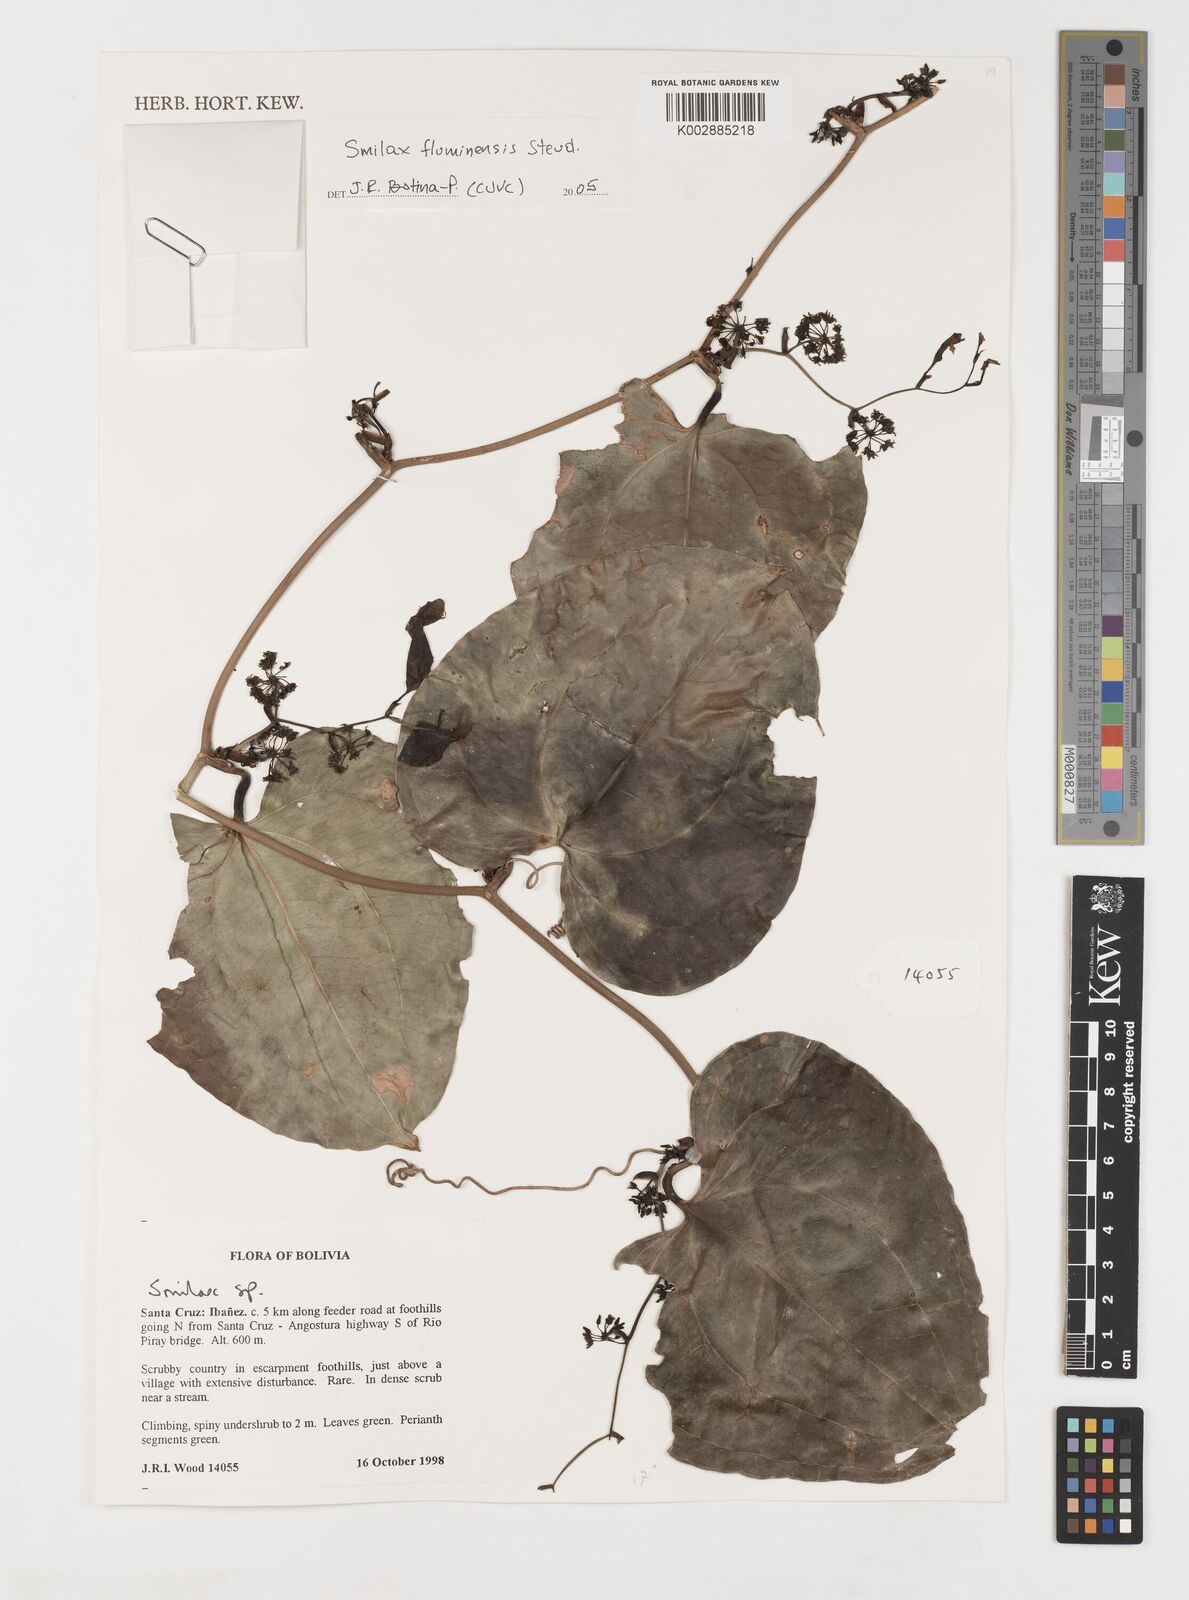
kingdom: Plantae
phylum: Tracheophyta
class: Liliopsida
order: Liliales
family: Smilacaceae
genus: Smilax
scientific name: Smilax fluminensis
